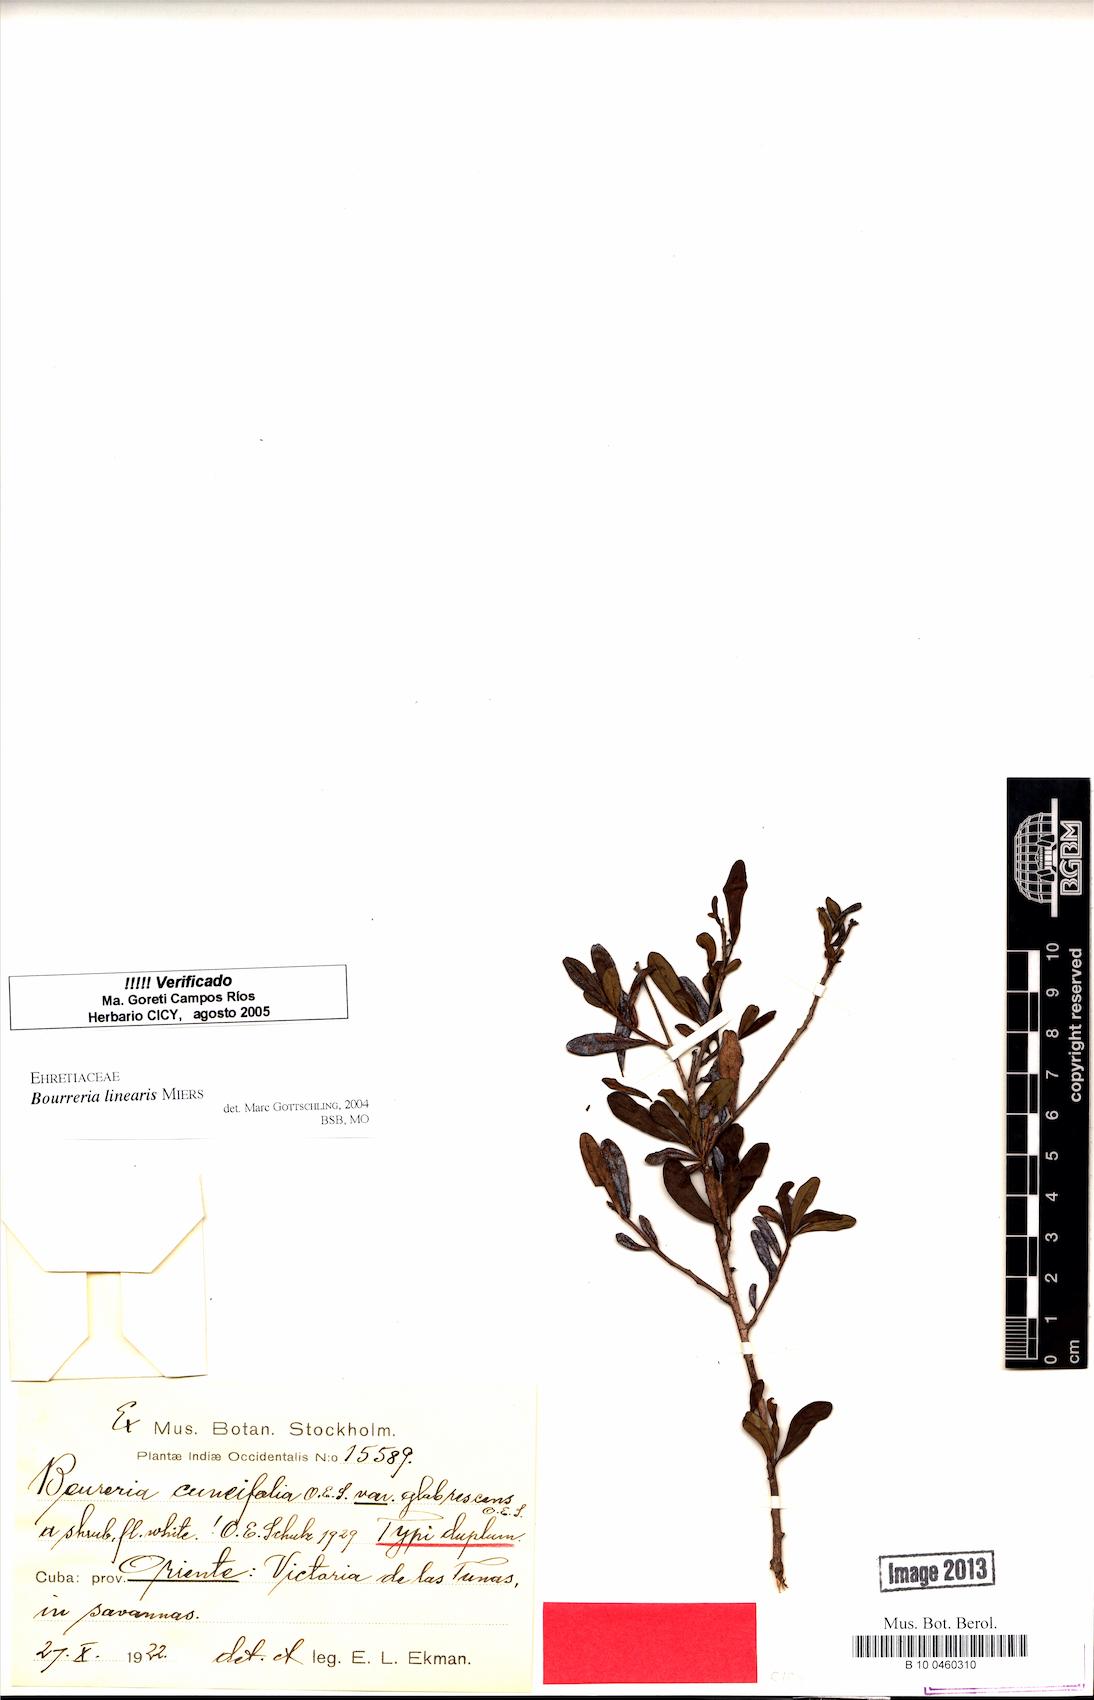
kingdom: Plantae
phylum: Tracheophyta
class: Magnoliopsida
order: Boraginales
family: Ehretiaceae
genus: Bourreria
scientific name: Bourreria linearis
